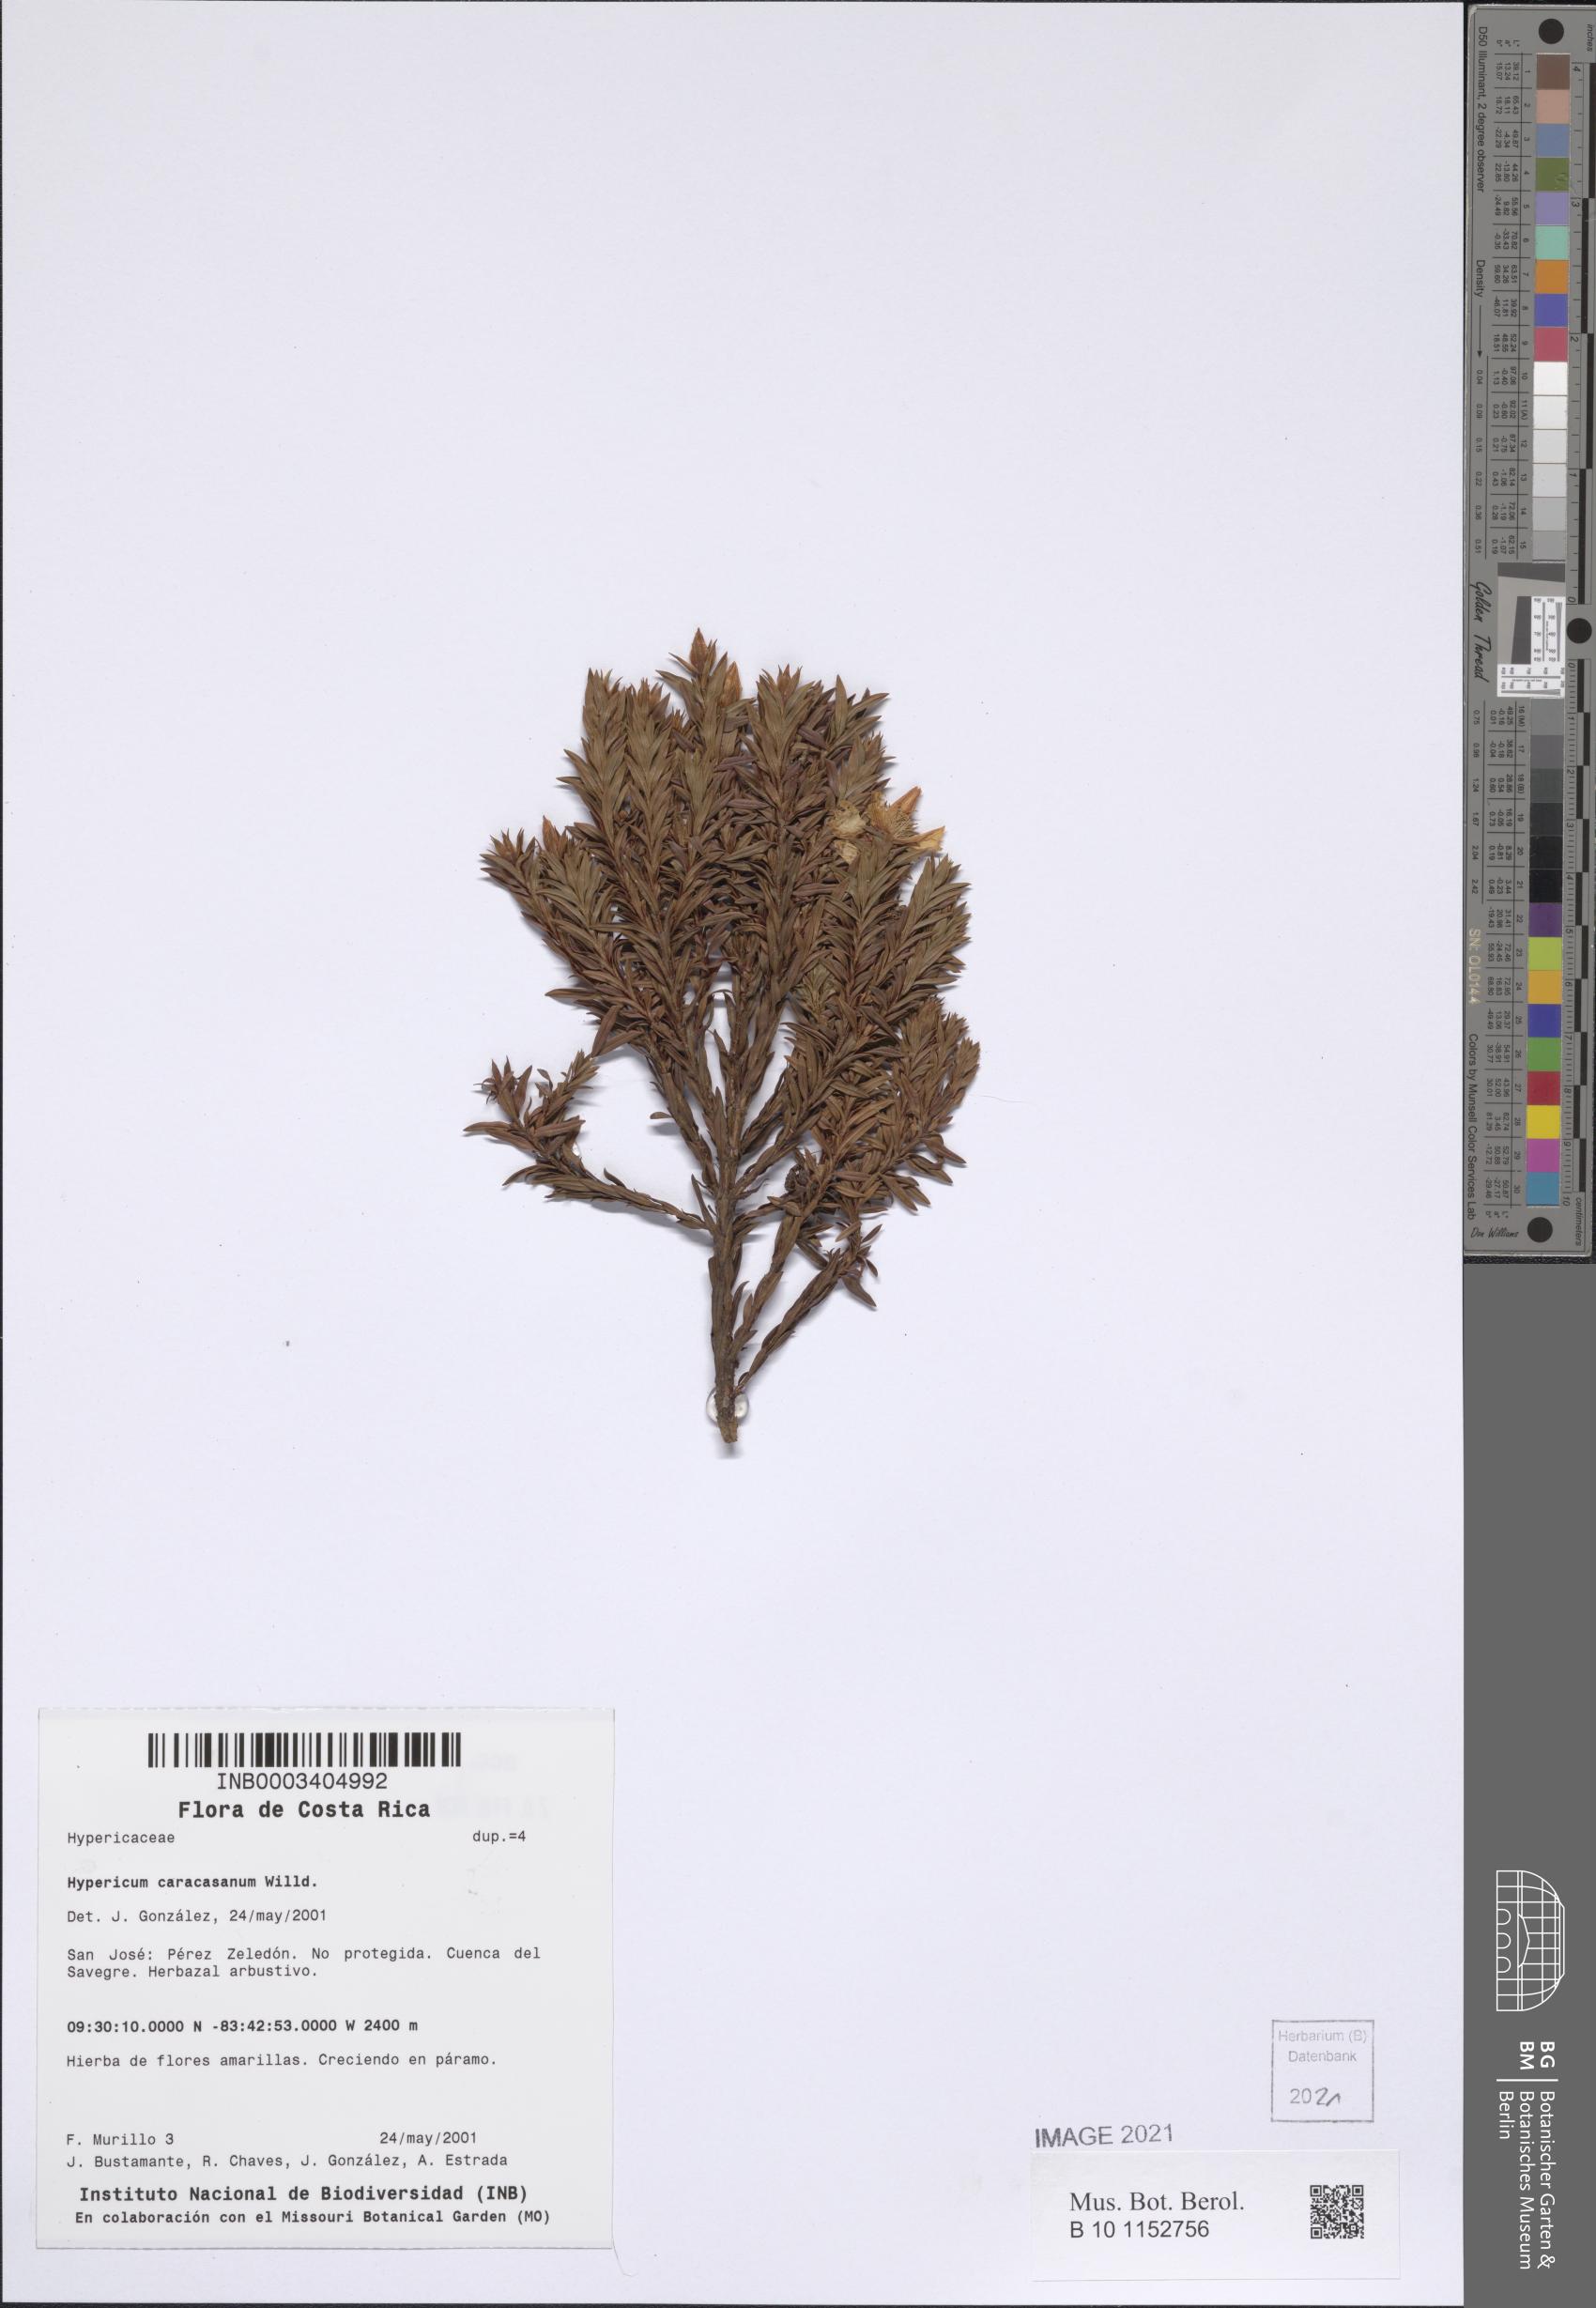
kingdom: Plantae
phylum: Tracheophyta
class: Magnoliopsida
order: Malpighiales
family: Hypericaceae
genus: Hypericum
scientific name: Hypericum irazuense
